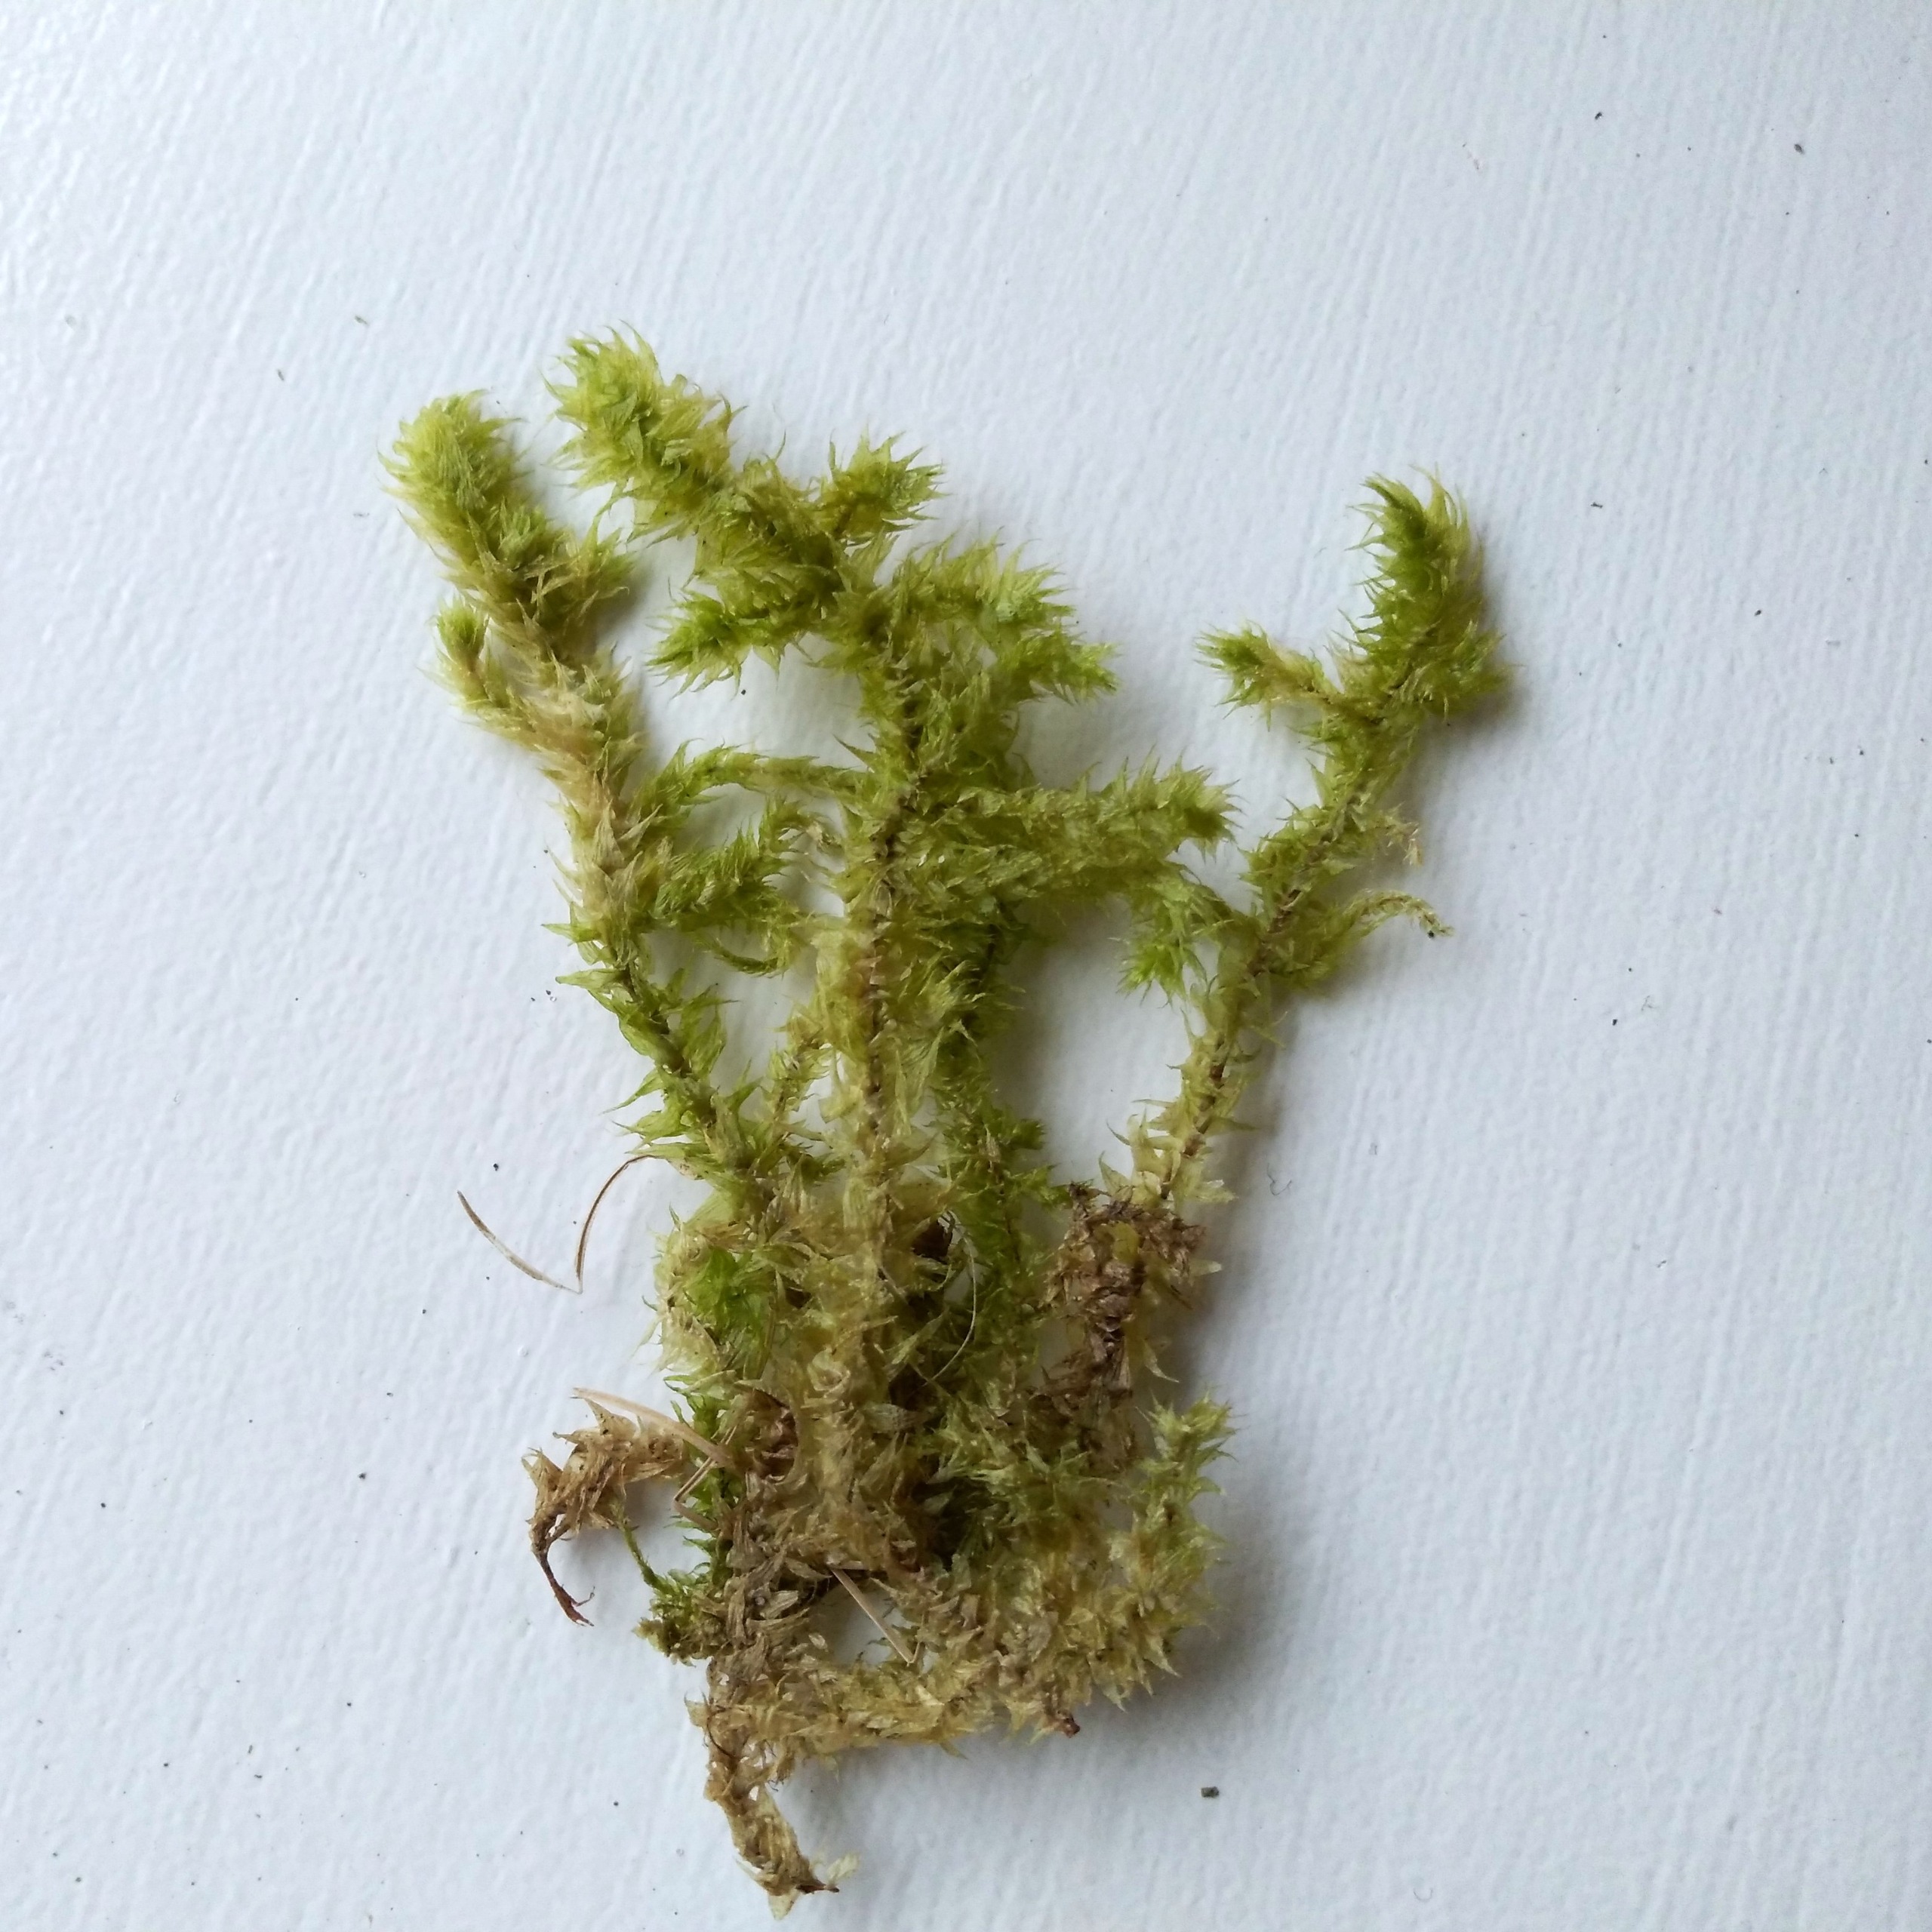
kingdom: Plantae
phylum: Bryophyta
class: Bryopsida
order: Hypnales
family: Hylocomiaceae
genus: Hylocomiadelphus
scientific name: Hylocomiadelphus triquetrus
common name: Stor kransemos
